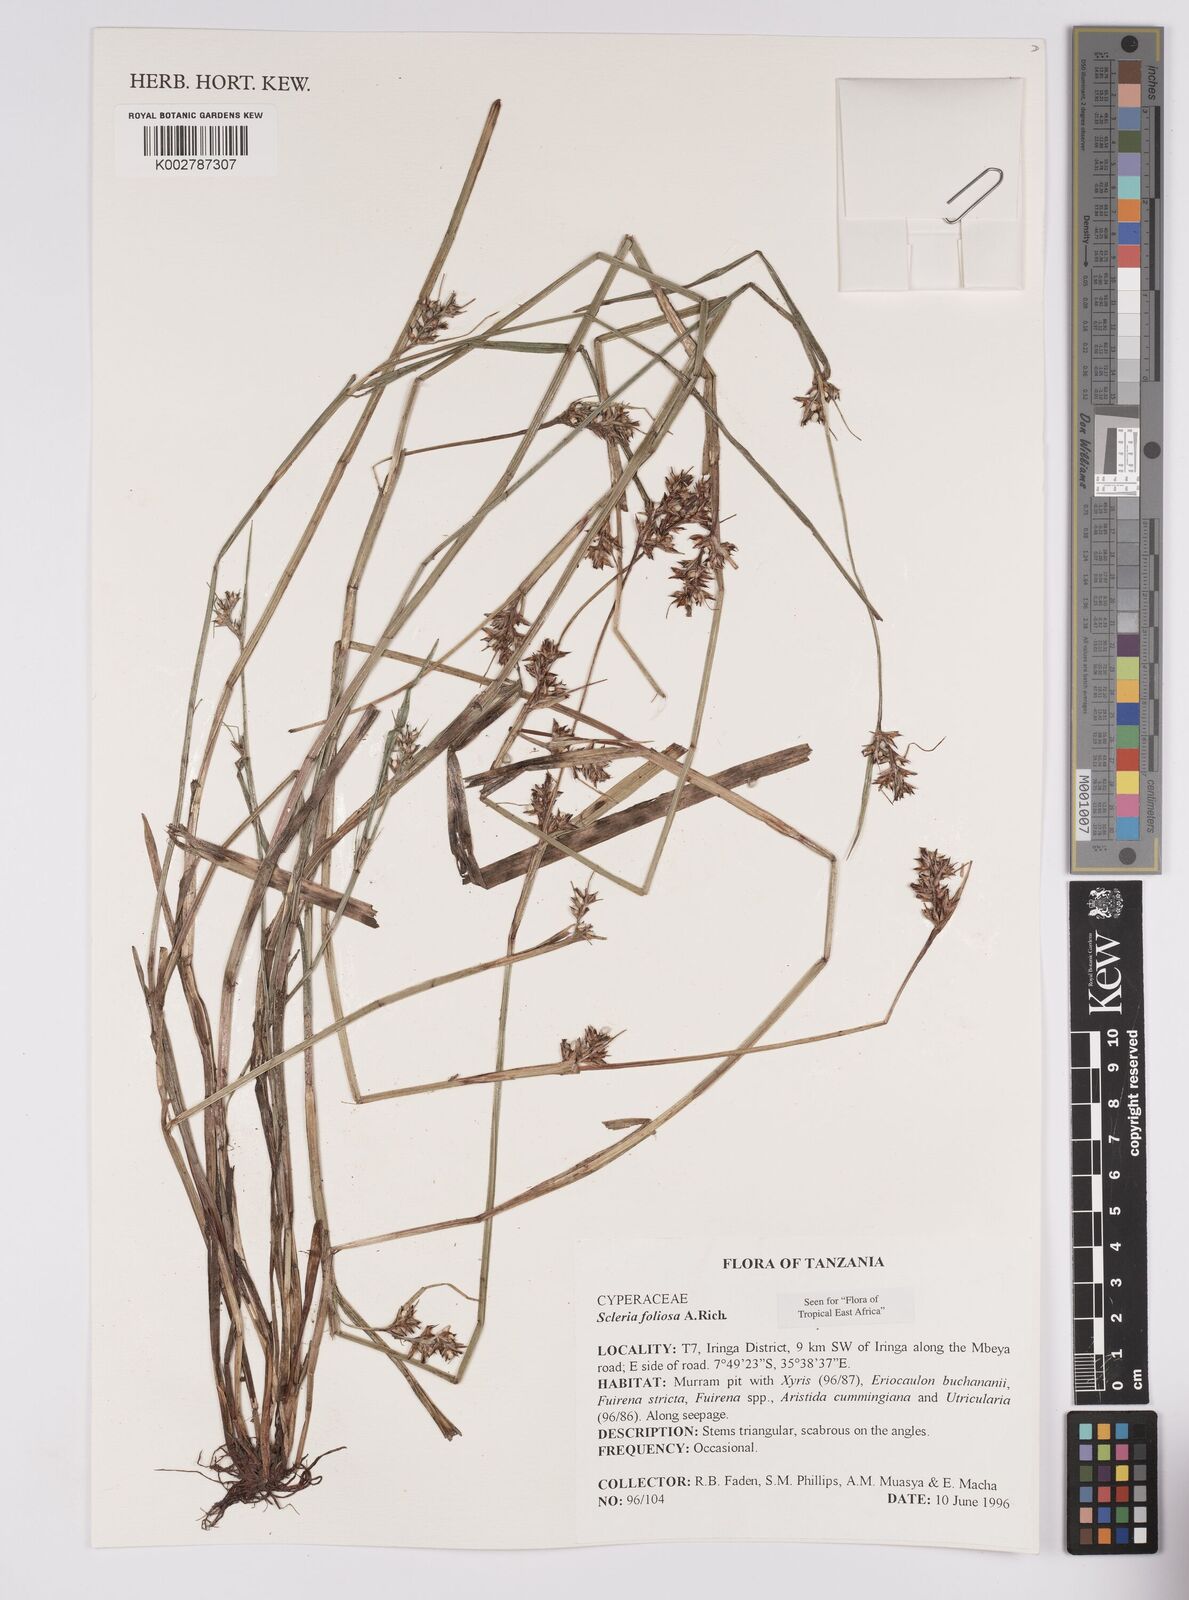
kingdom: Plantae
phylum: Tracheophyta
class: Liliopsida
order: Poales
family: Cyperaceae
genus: Scleria
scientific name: Scleria foliosa
